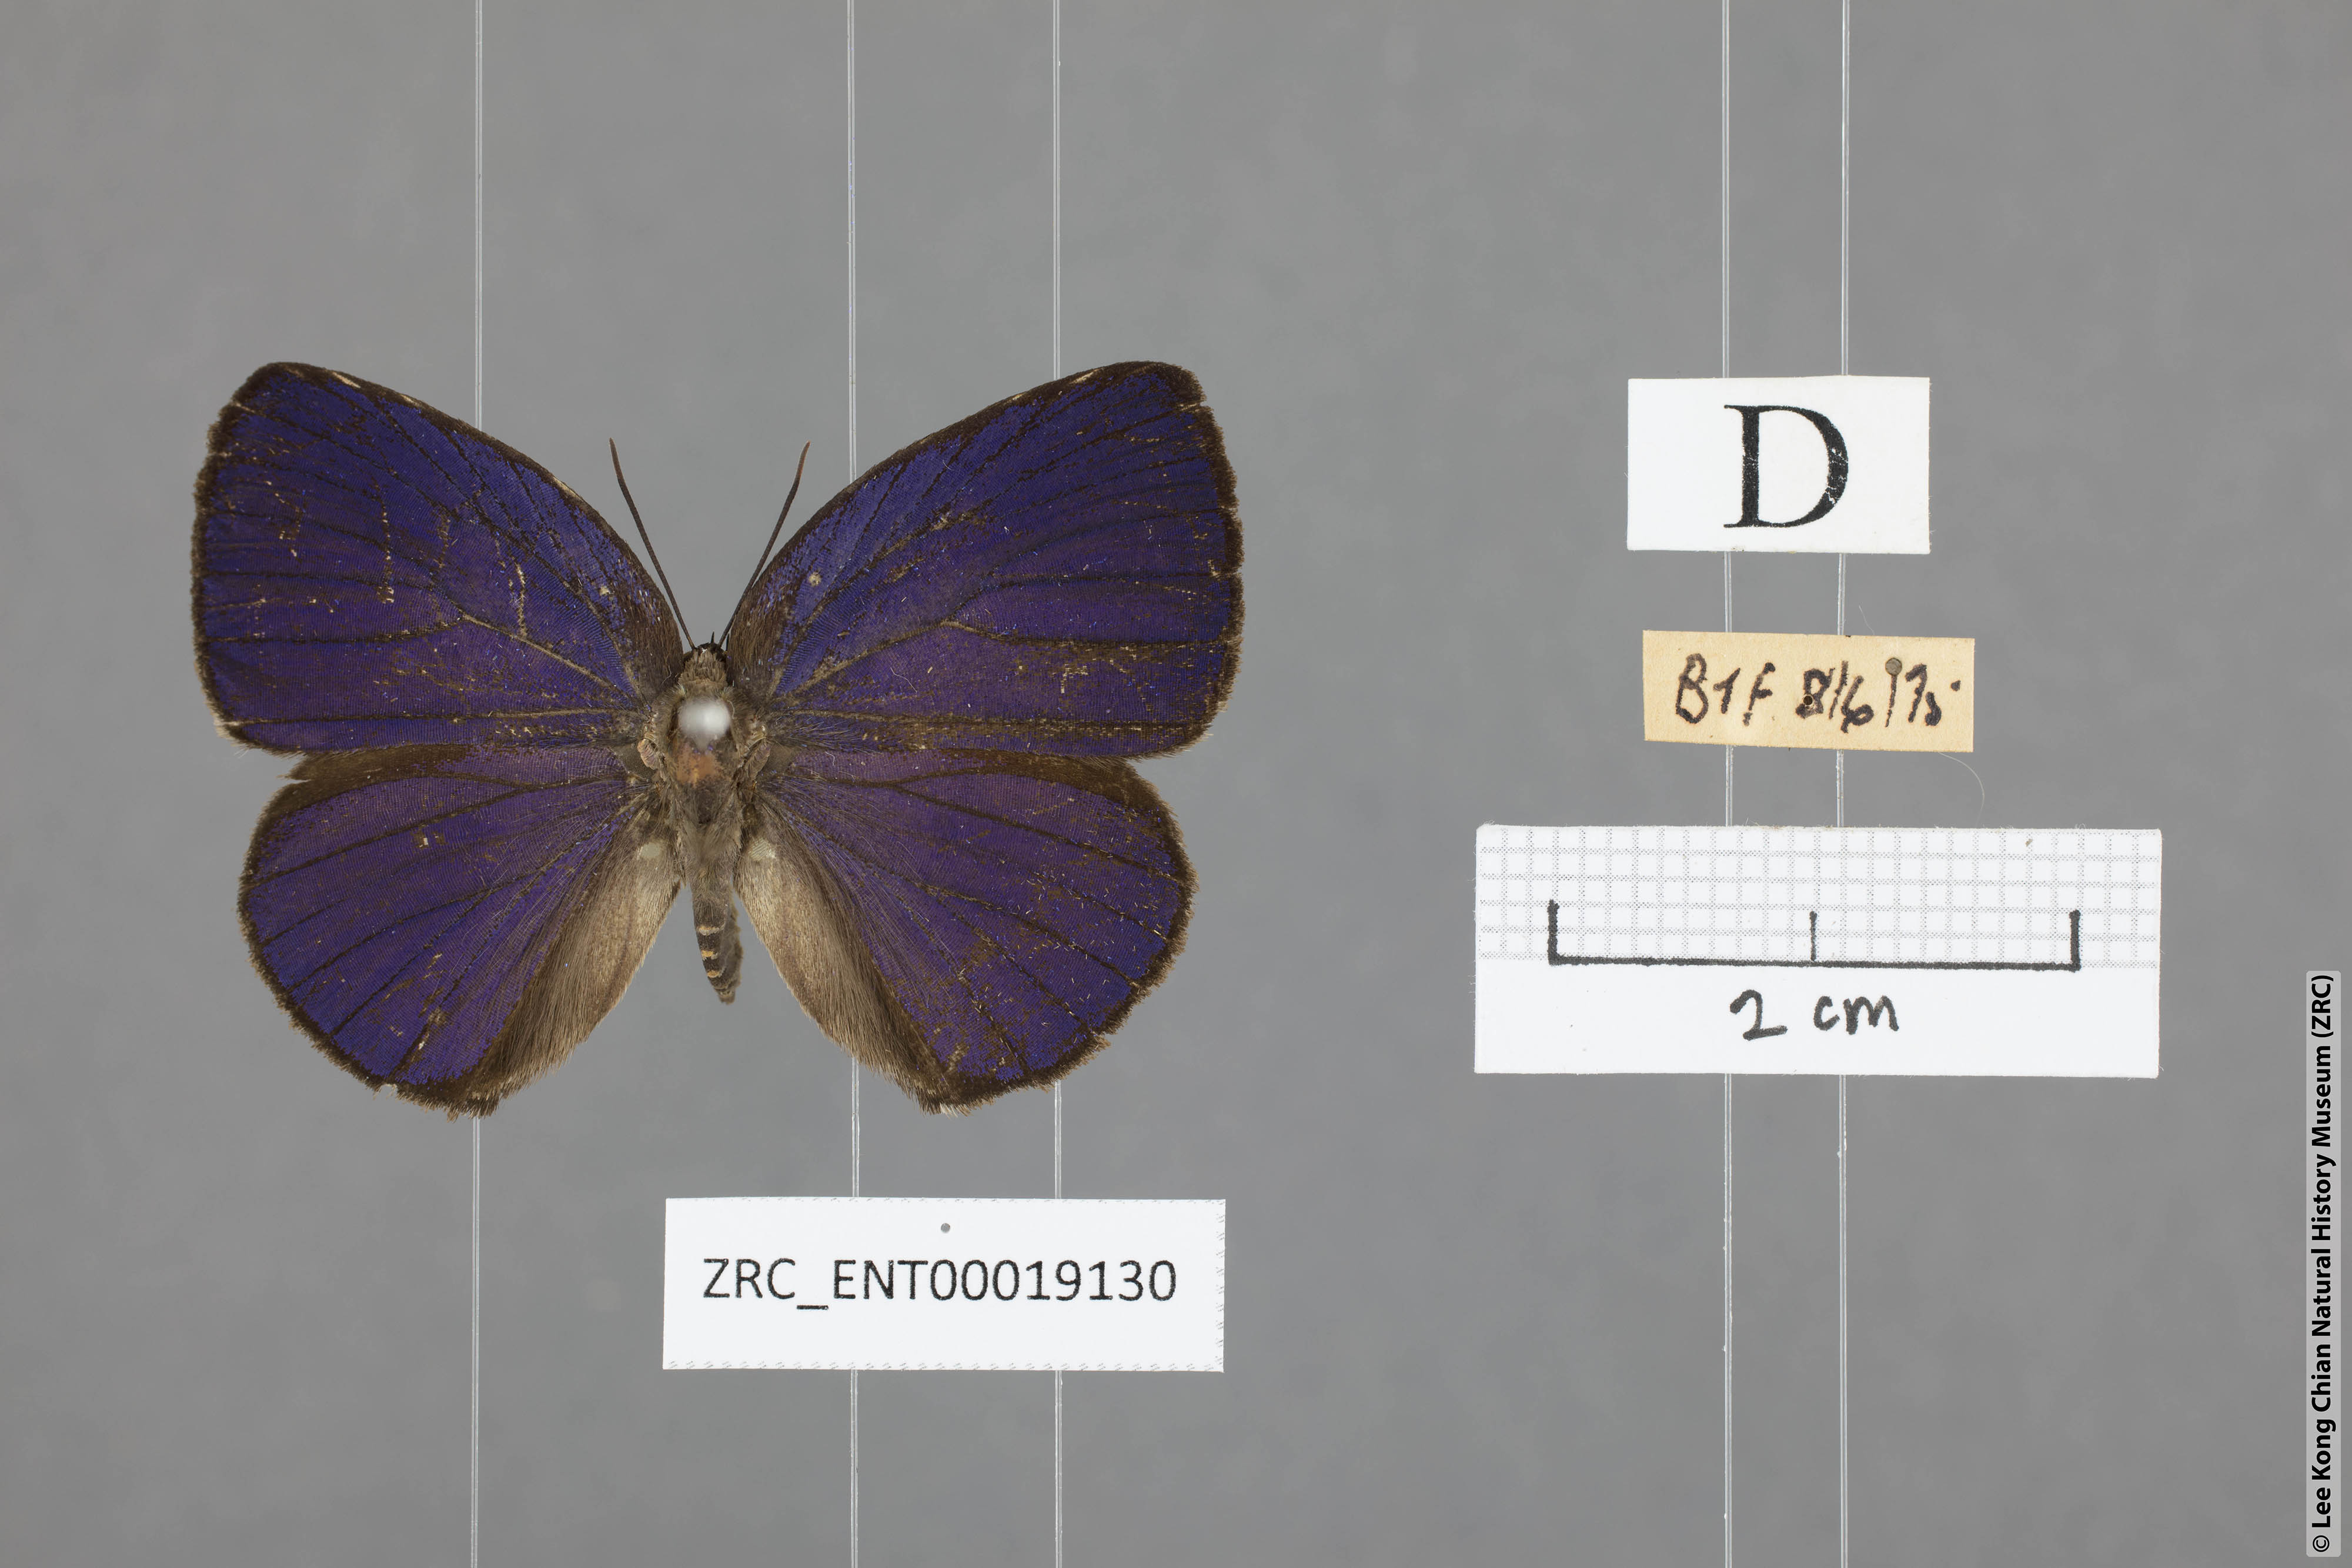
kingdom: Animalia
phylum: Arthropoda
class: Insecta
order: Lepidoptera
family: Lycaenidae
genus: Arhopala
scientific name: Arhopala amphimuta
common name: Broad yellow oakblue
